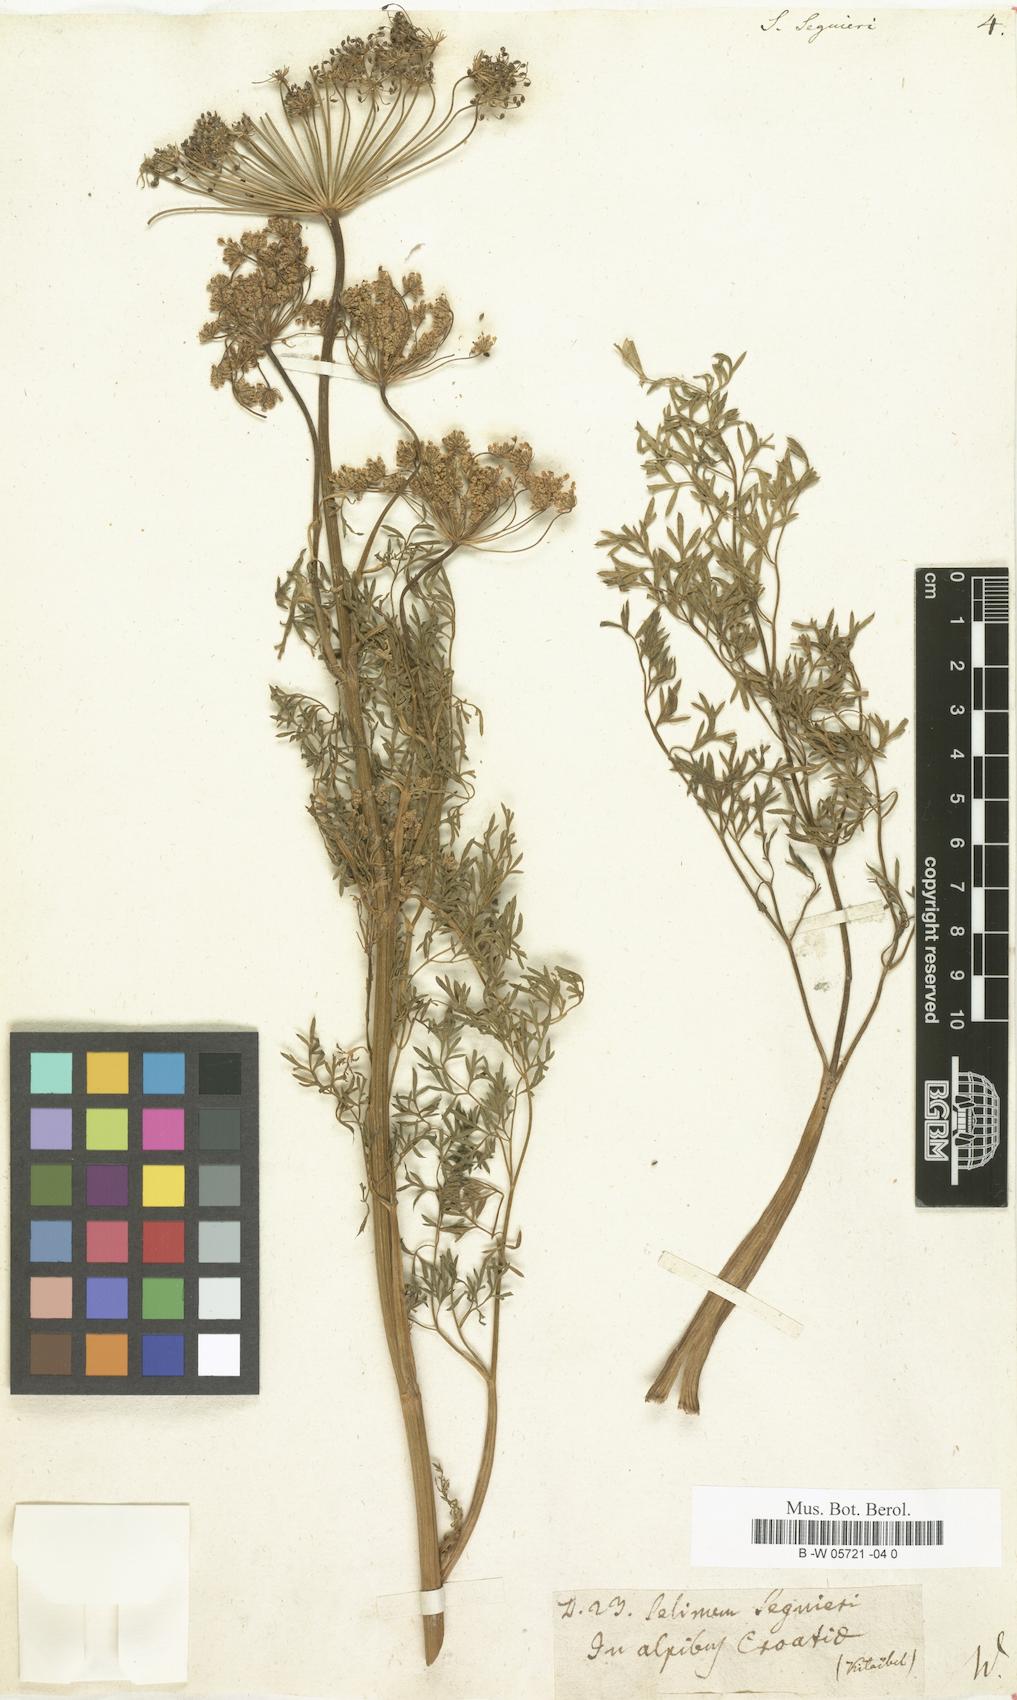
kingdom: Plantae
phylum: Tracheophyta
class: Magnoliopsida
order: Apiales
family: Apiaceae
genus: Coristospermum
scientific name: Coristospermum lucidum
